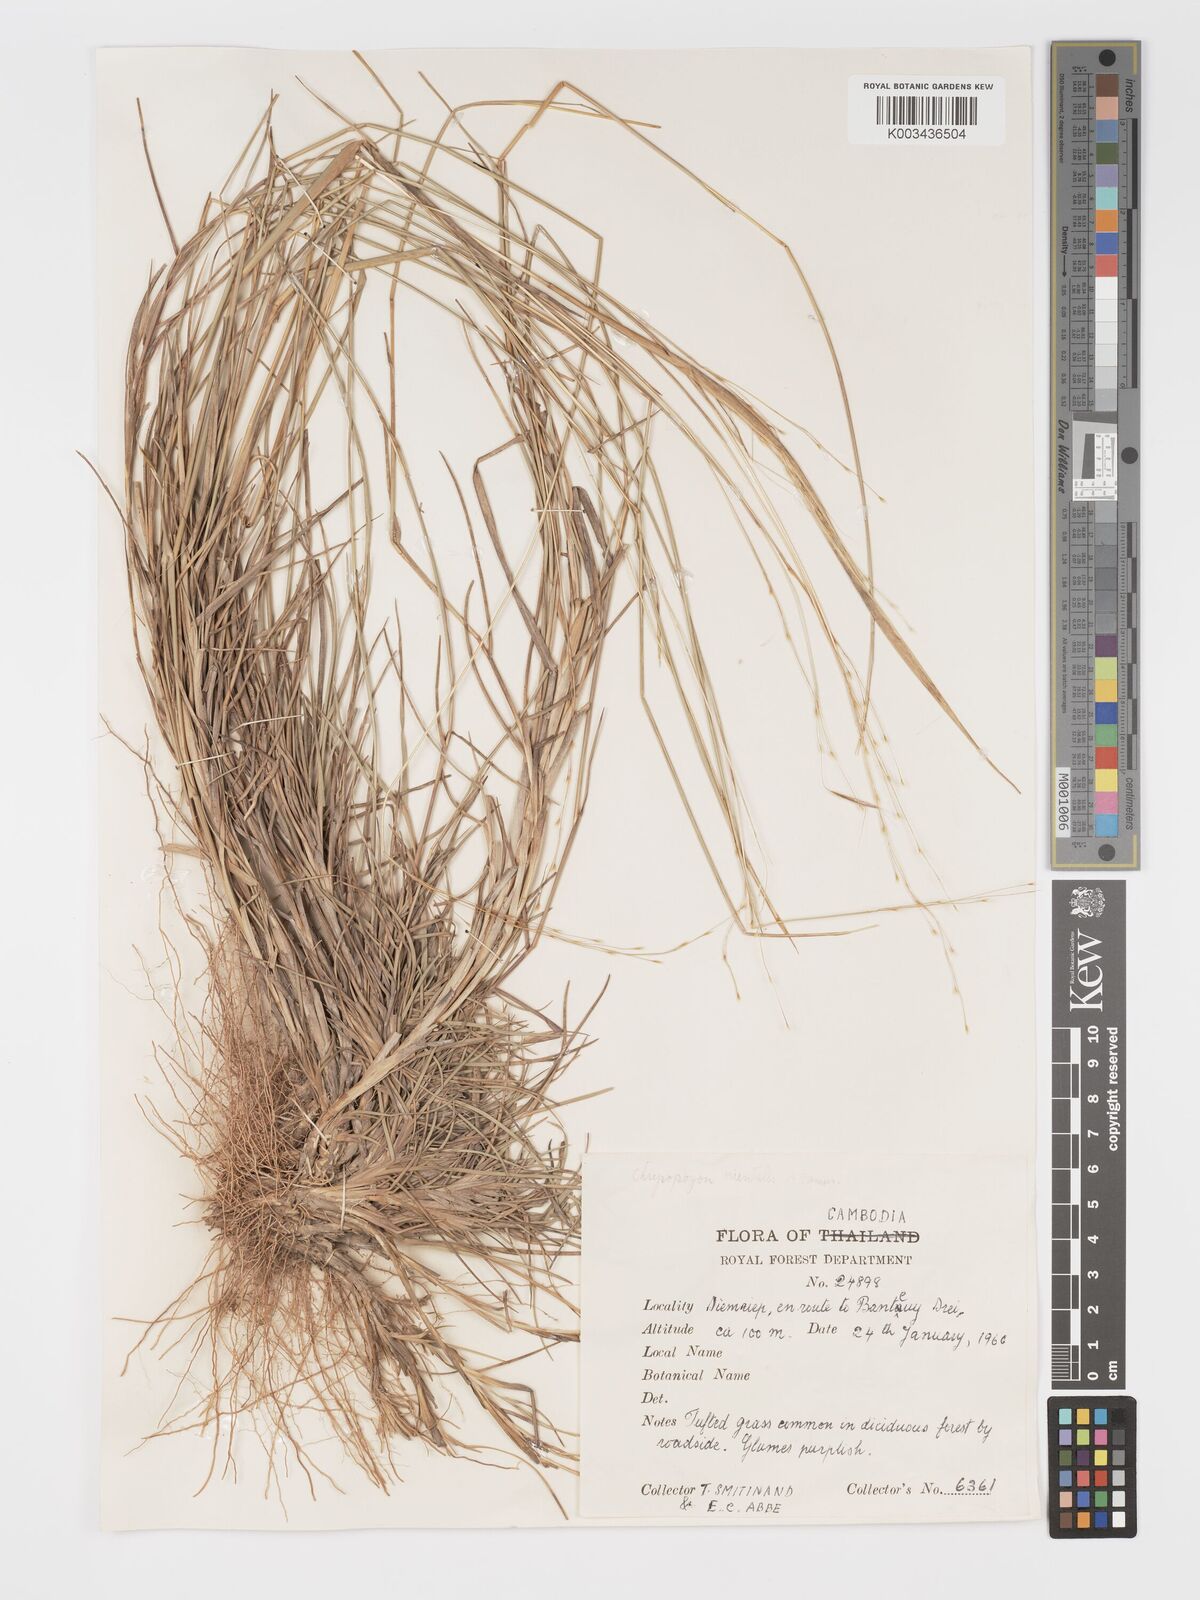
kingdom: Plantae
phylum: Tracheophyta
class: Liliopsida
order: Poales
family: Poaceae
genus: Chrysopogon
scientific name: Chrysopogon orientalis
